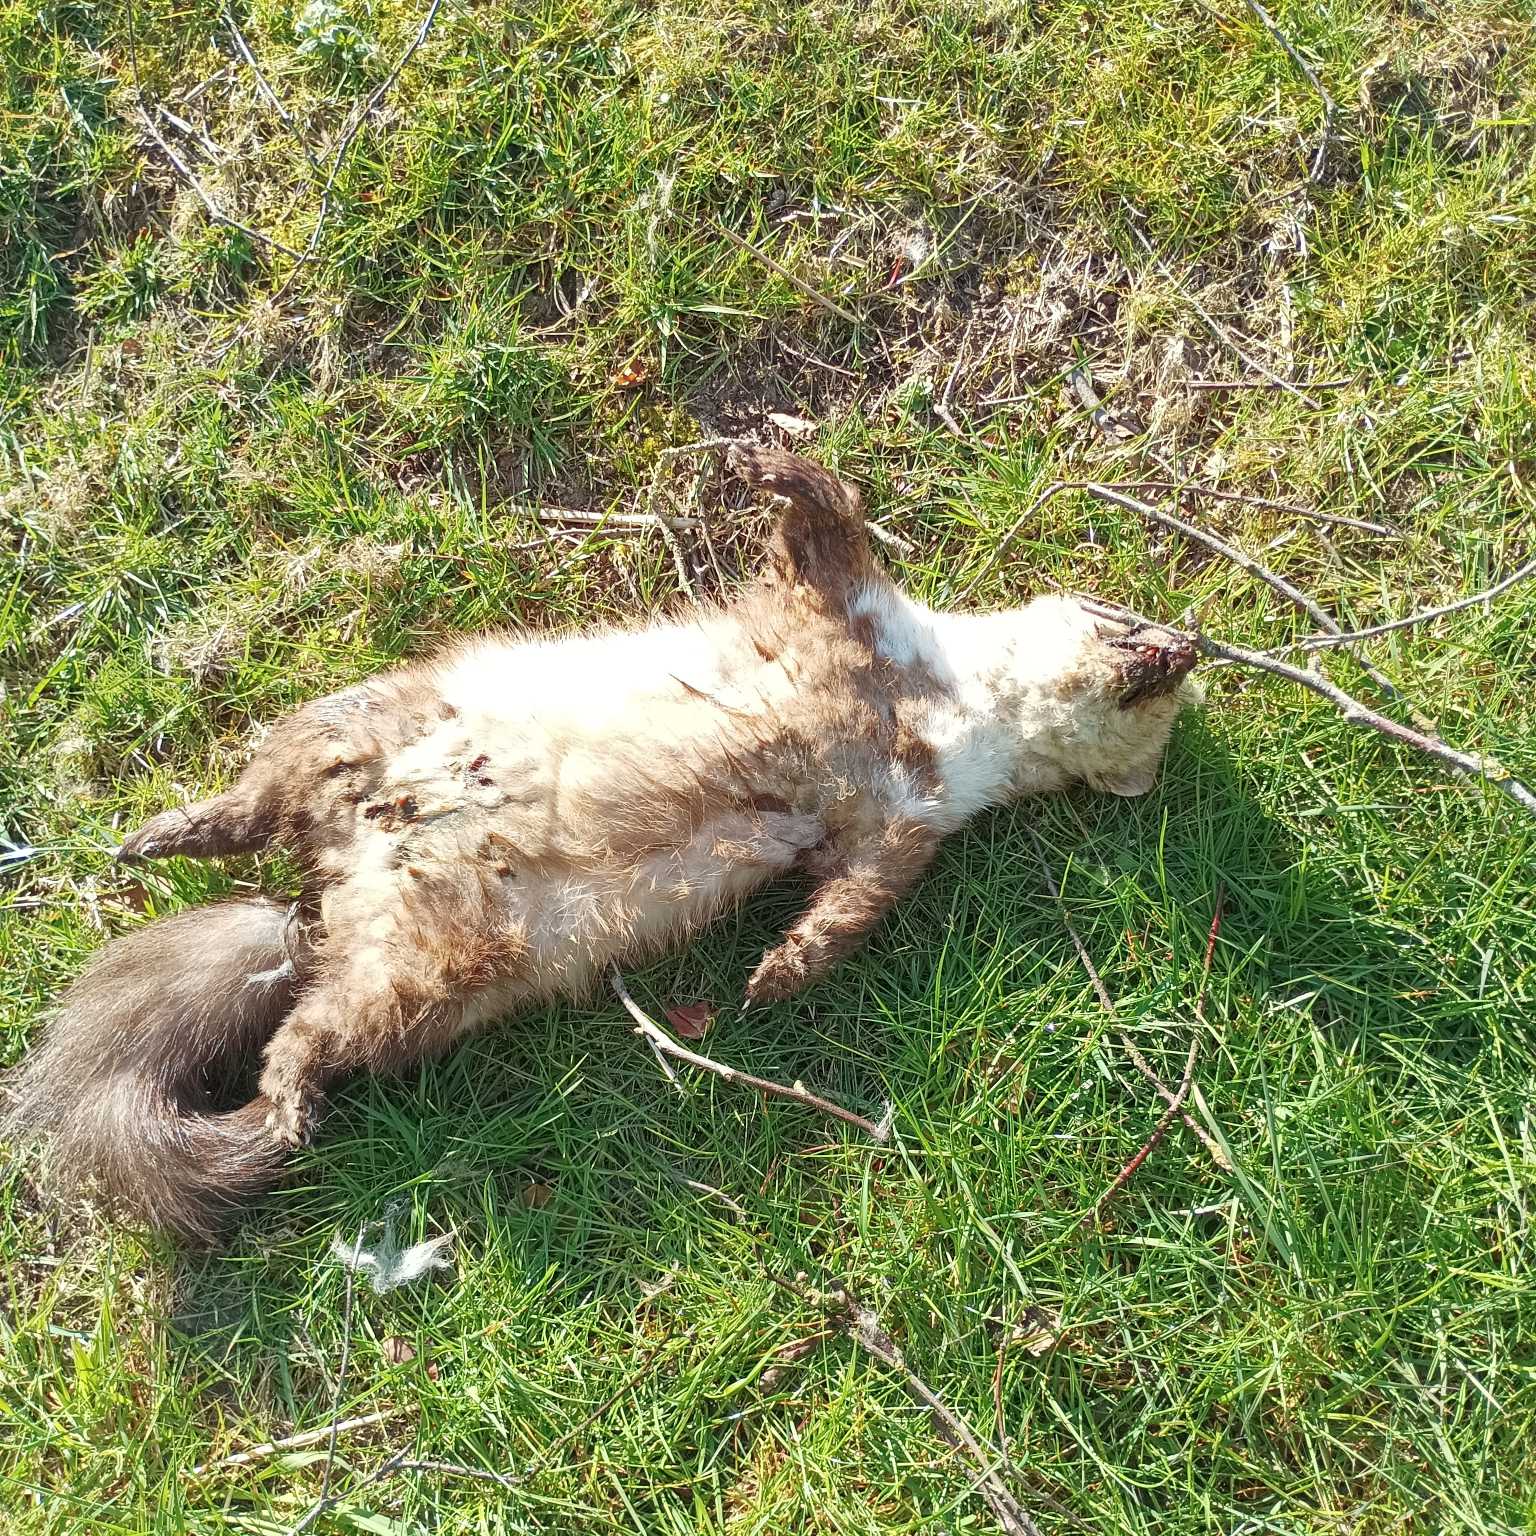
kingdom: Animalia
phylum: Chordata
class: Mammalia
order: Carnivora
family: Mustelidae
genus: Martes
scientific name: Martes foina
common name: Husmår
